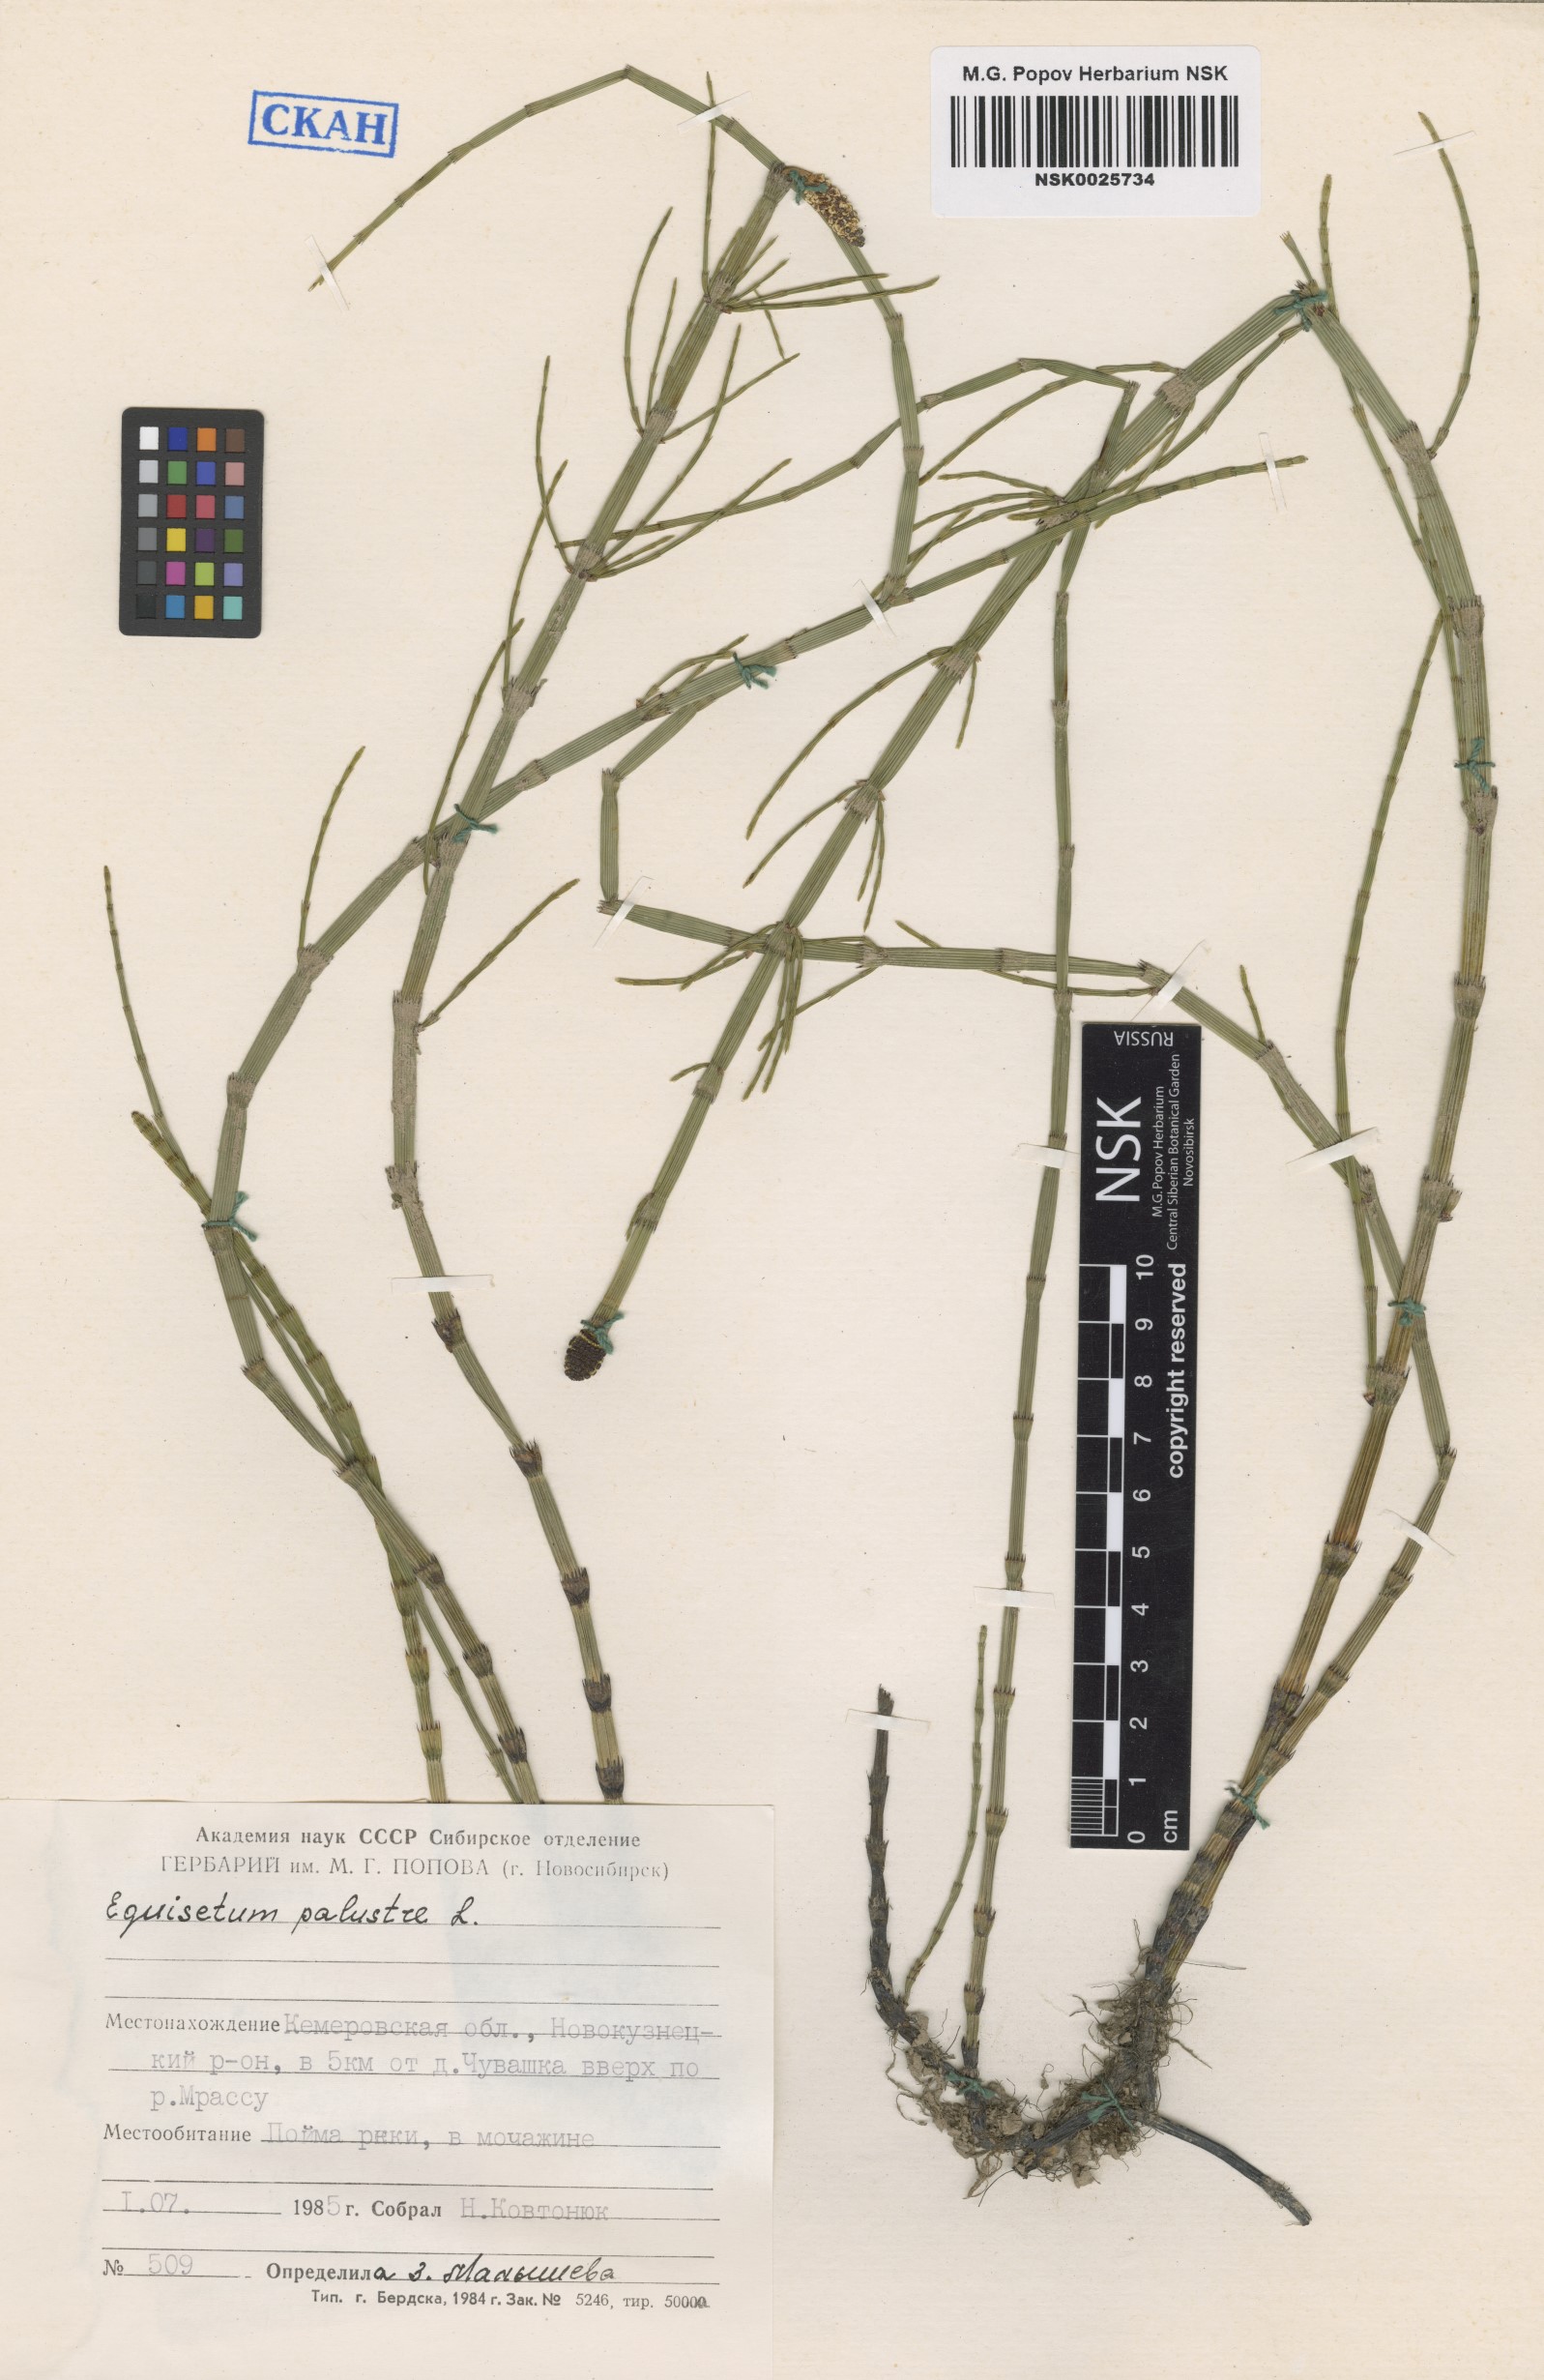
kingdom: Plantae
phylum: Tracheophyta
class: Polypodiopsida
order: Equisetales
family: Equisetaceae
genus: Equisetum
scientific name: Equisetum palustre
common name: Marsh horsetail
